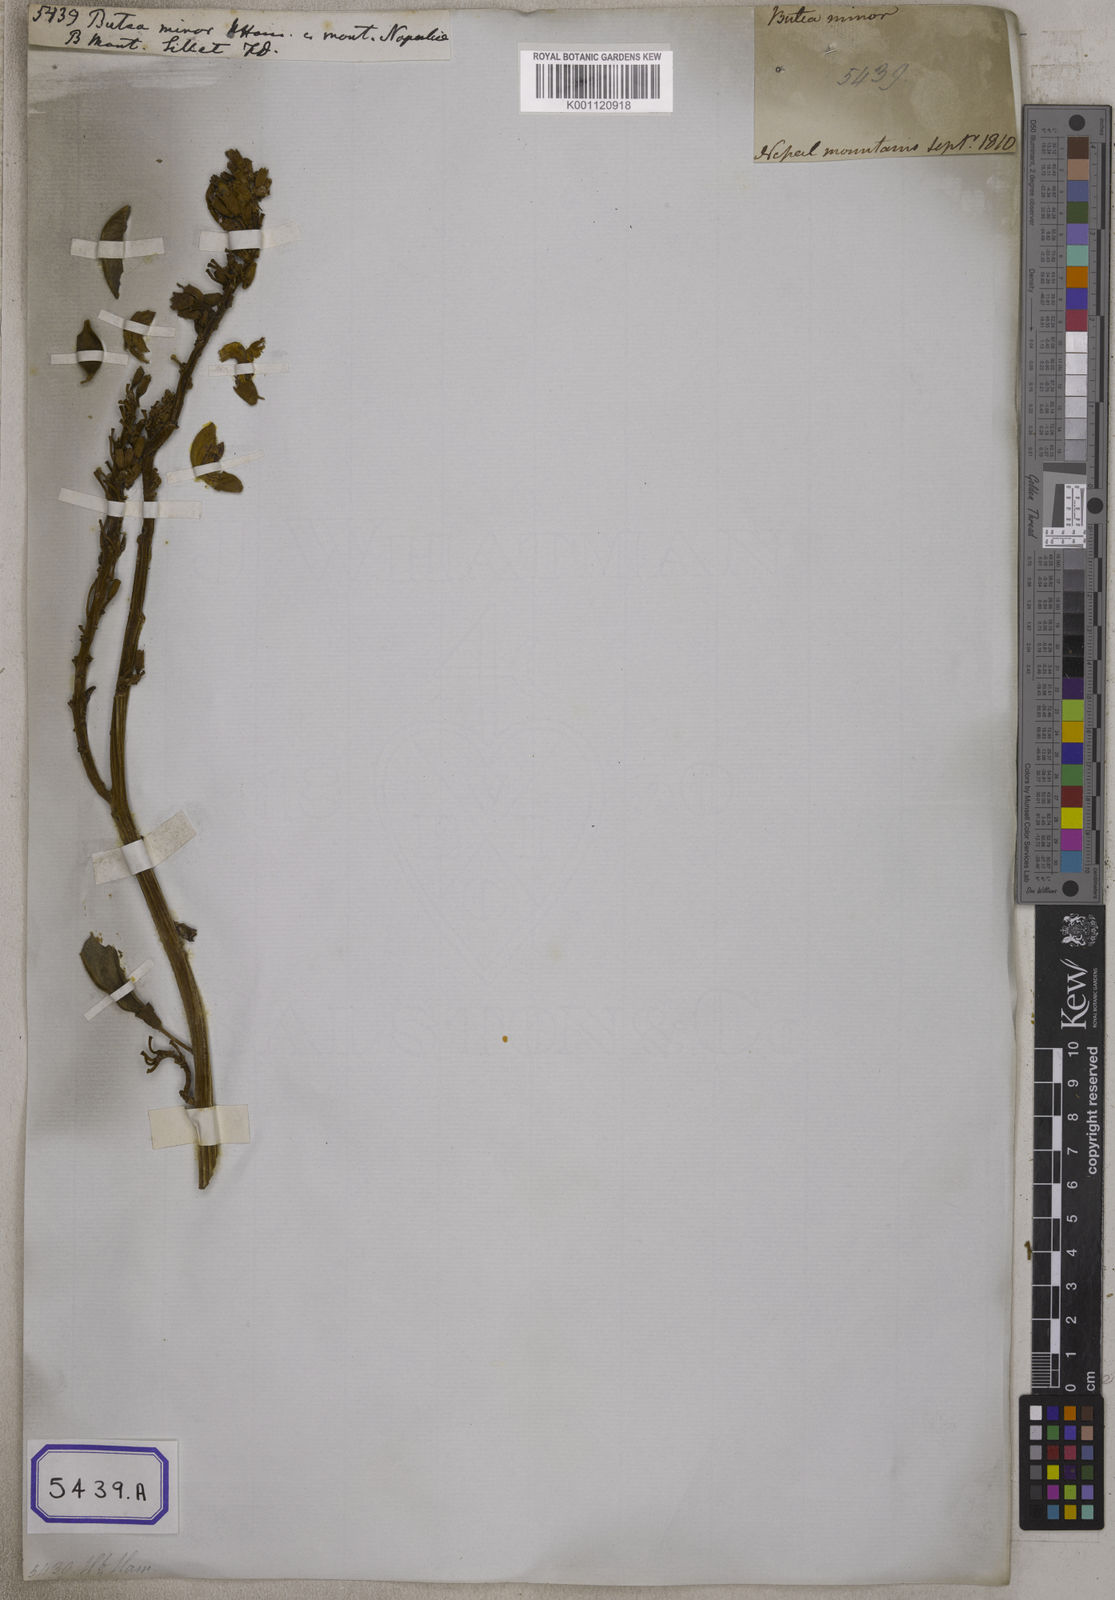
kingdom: Plantae
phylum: Tracheophyta
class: Magnoliopsida
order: Fabales
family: Fabaceae
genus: Butea
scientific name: Butea
